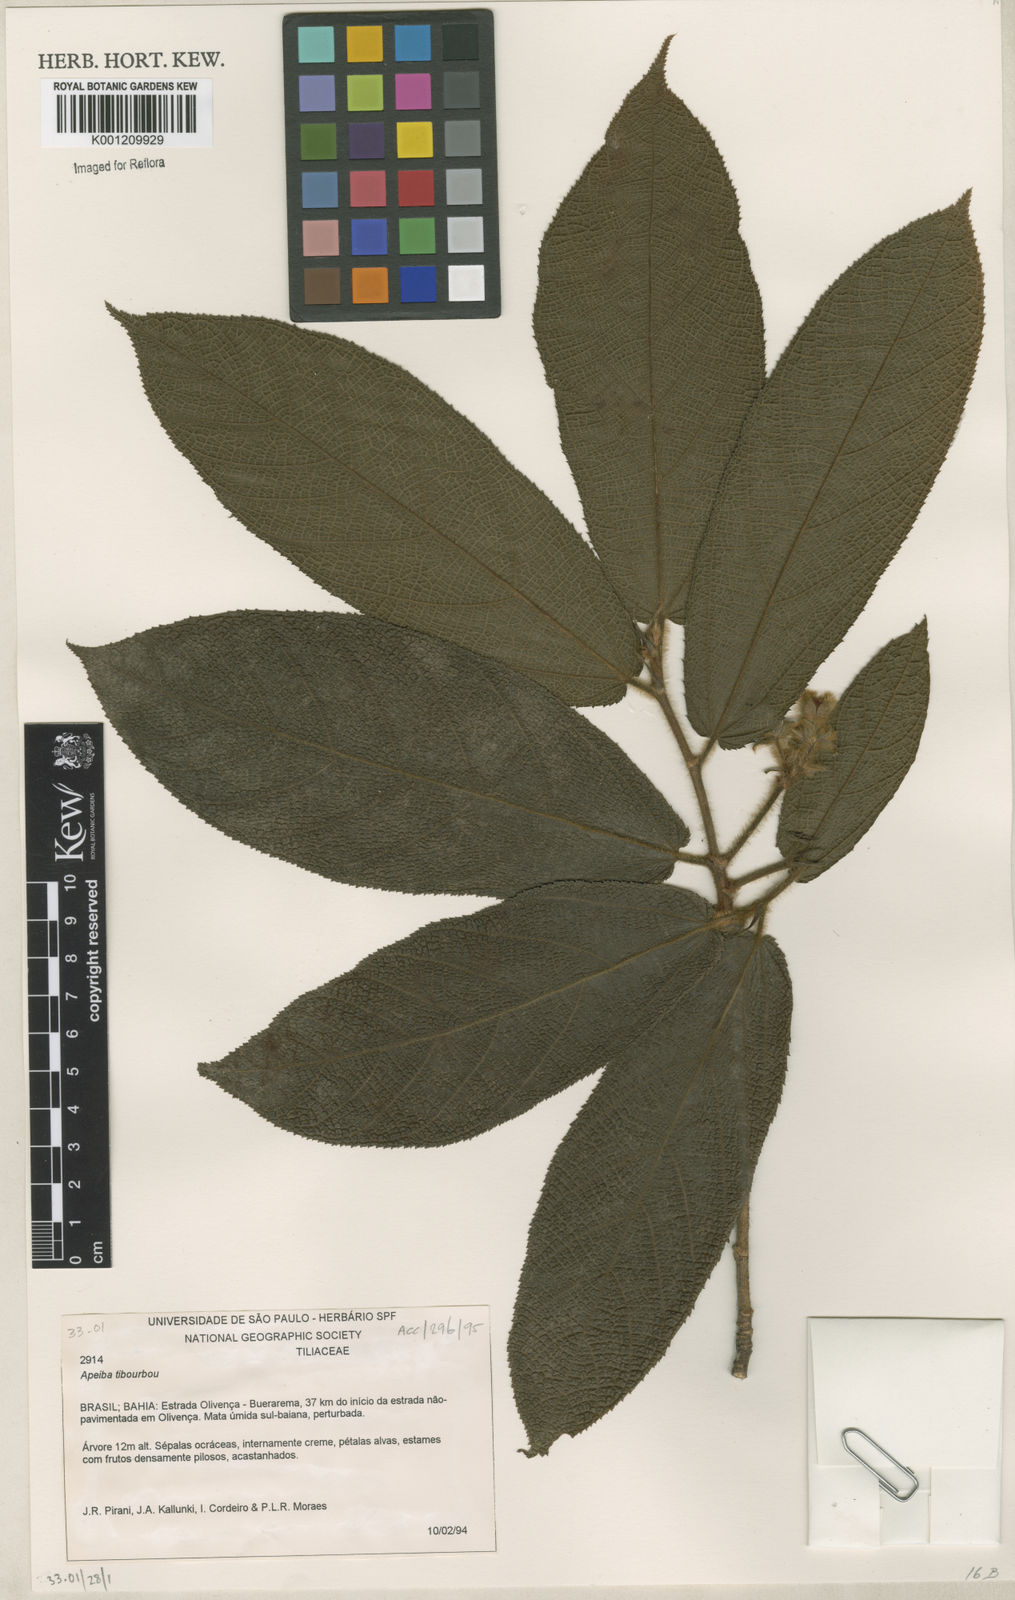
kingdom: Plantae
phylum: Tracheophyta
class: Magnoliopsida
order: Malvales
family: Malvaceae
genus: Apeiba
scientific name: Apeiba tibourbou
